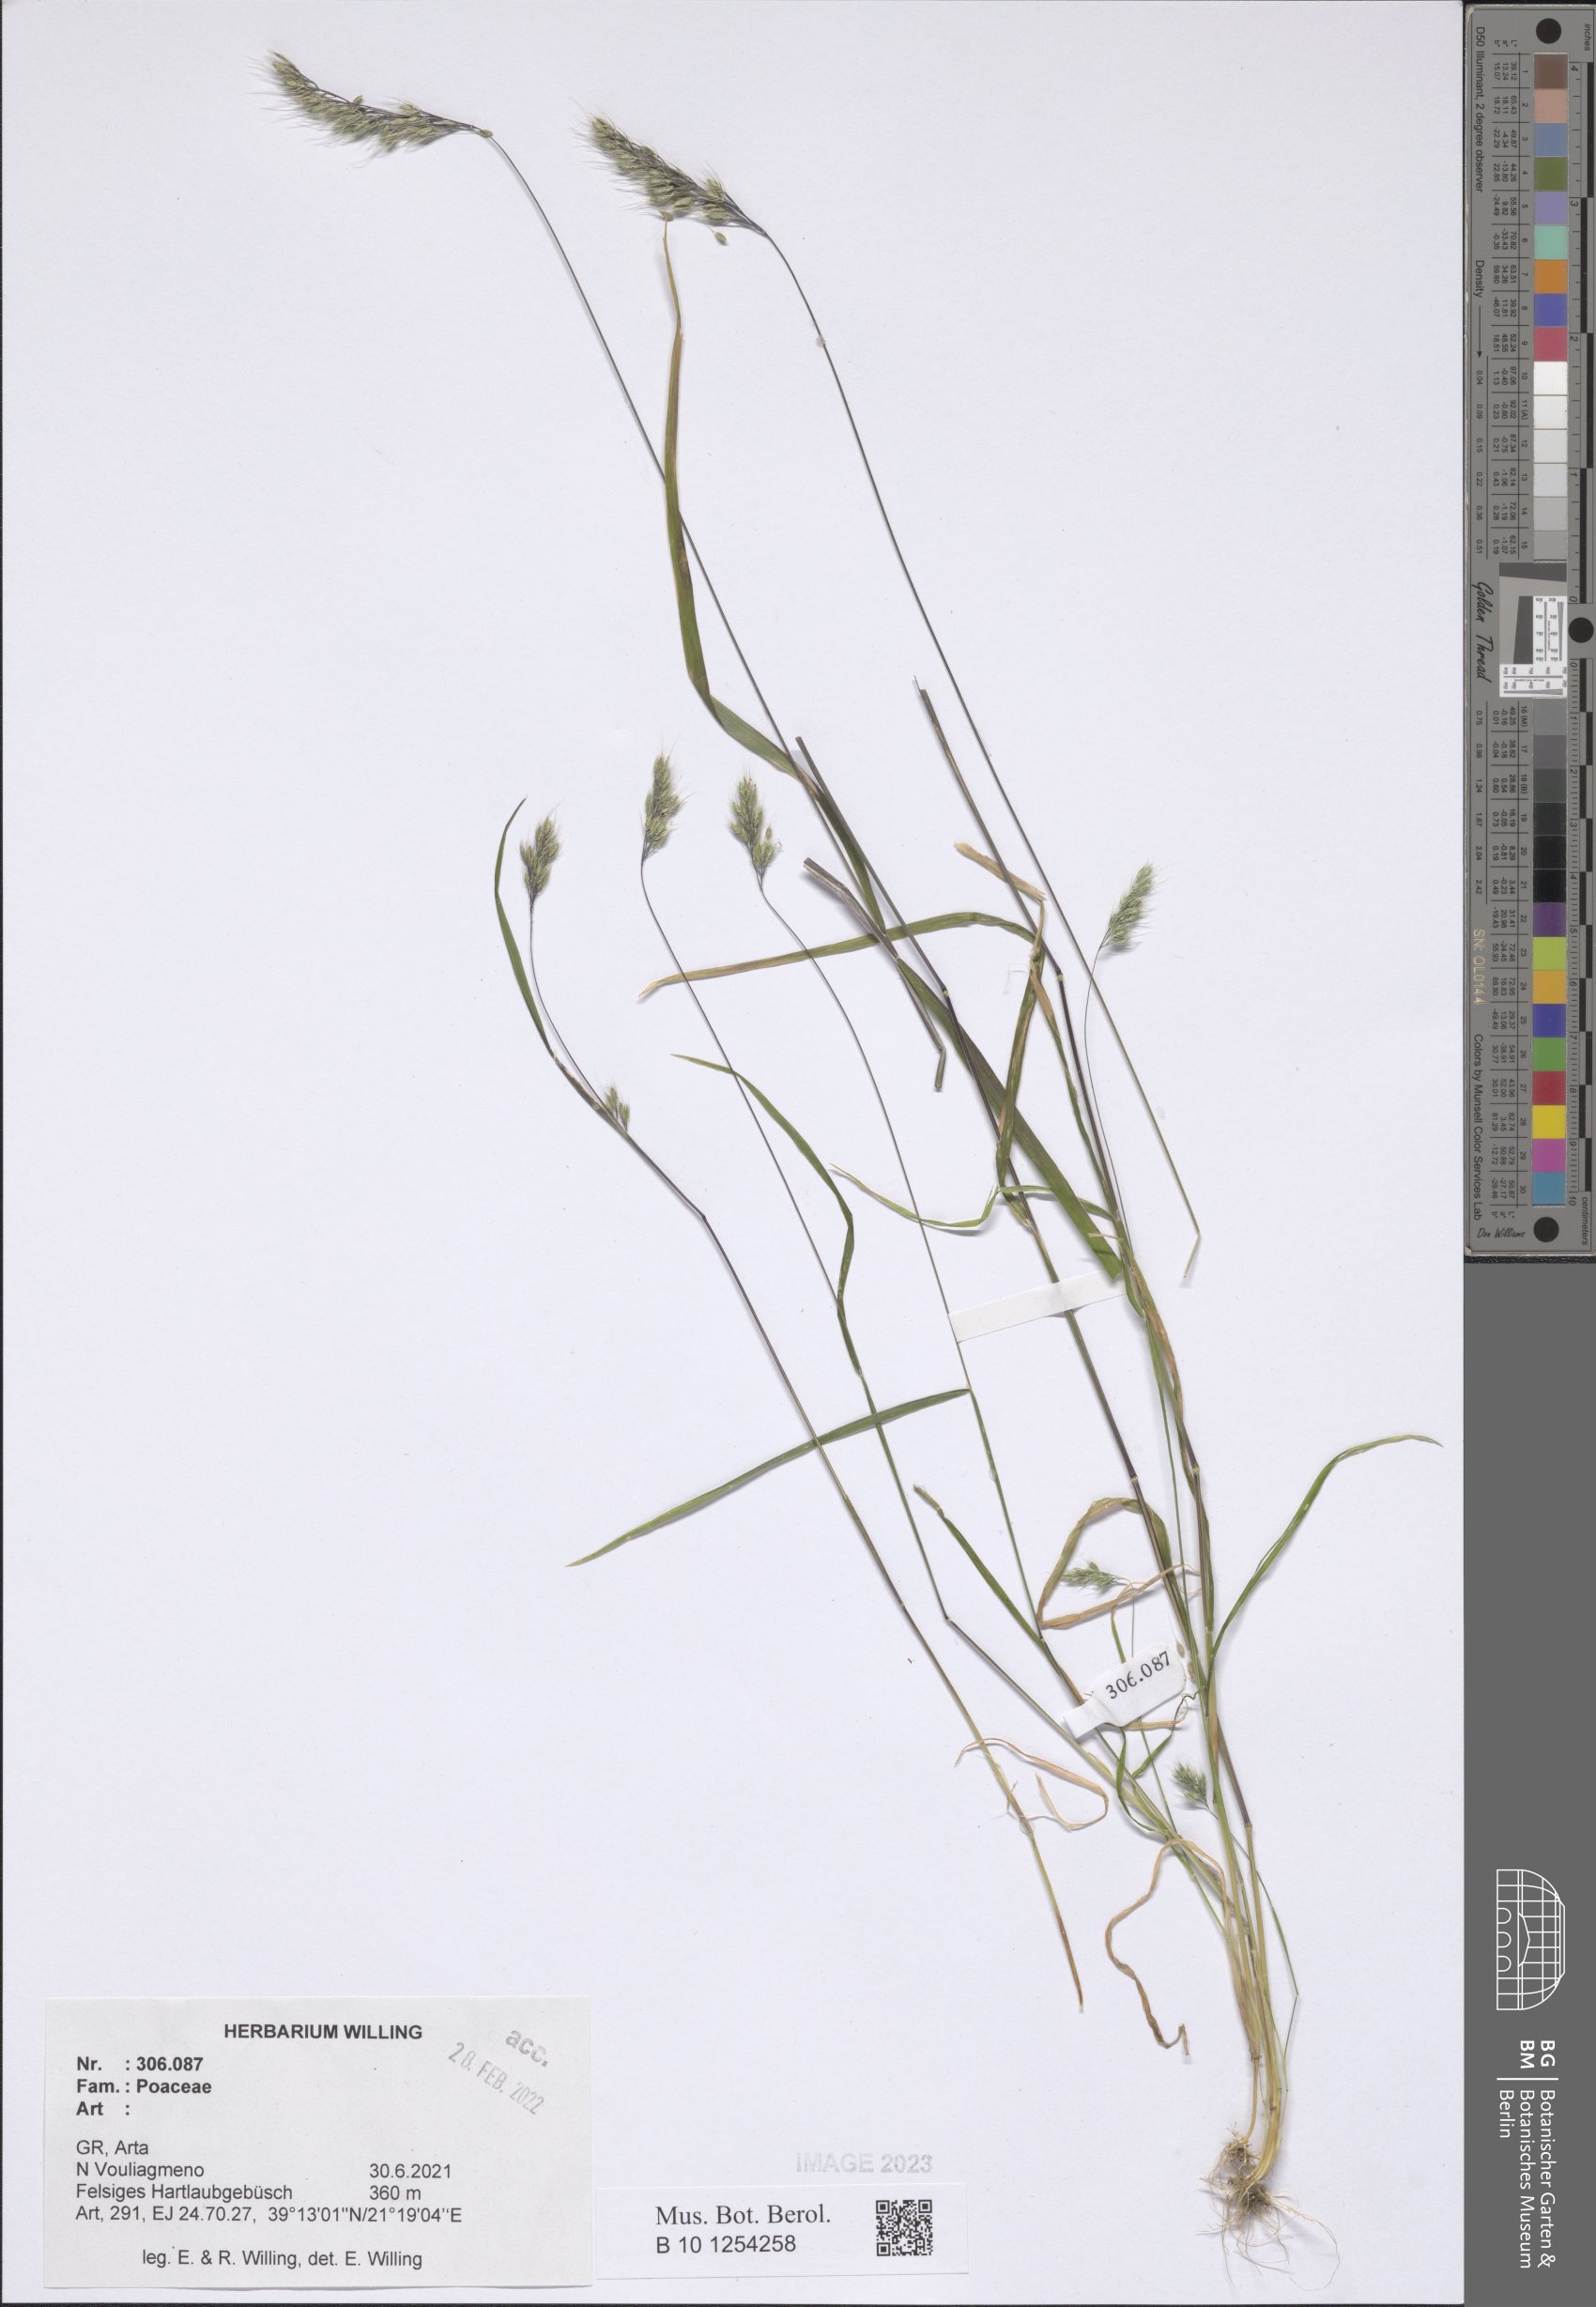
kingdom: Plantae
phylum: Tracheophyta
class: Liliopsida
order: Poales
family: Poaceae
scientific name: Poaceae
